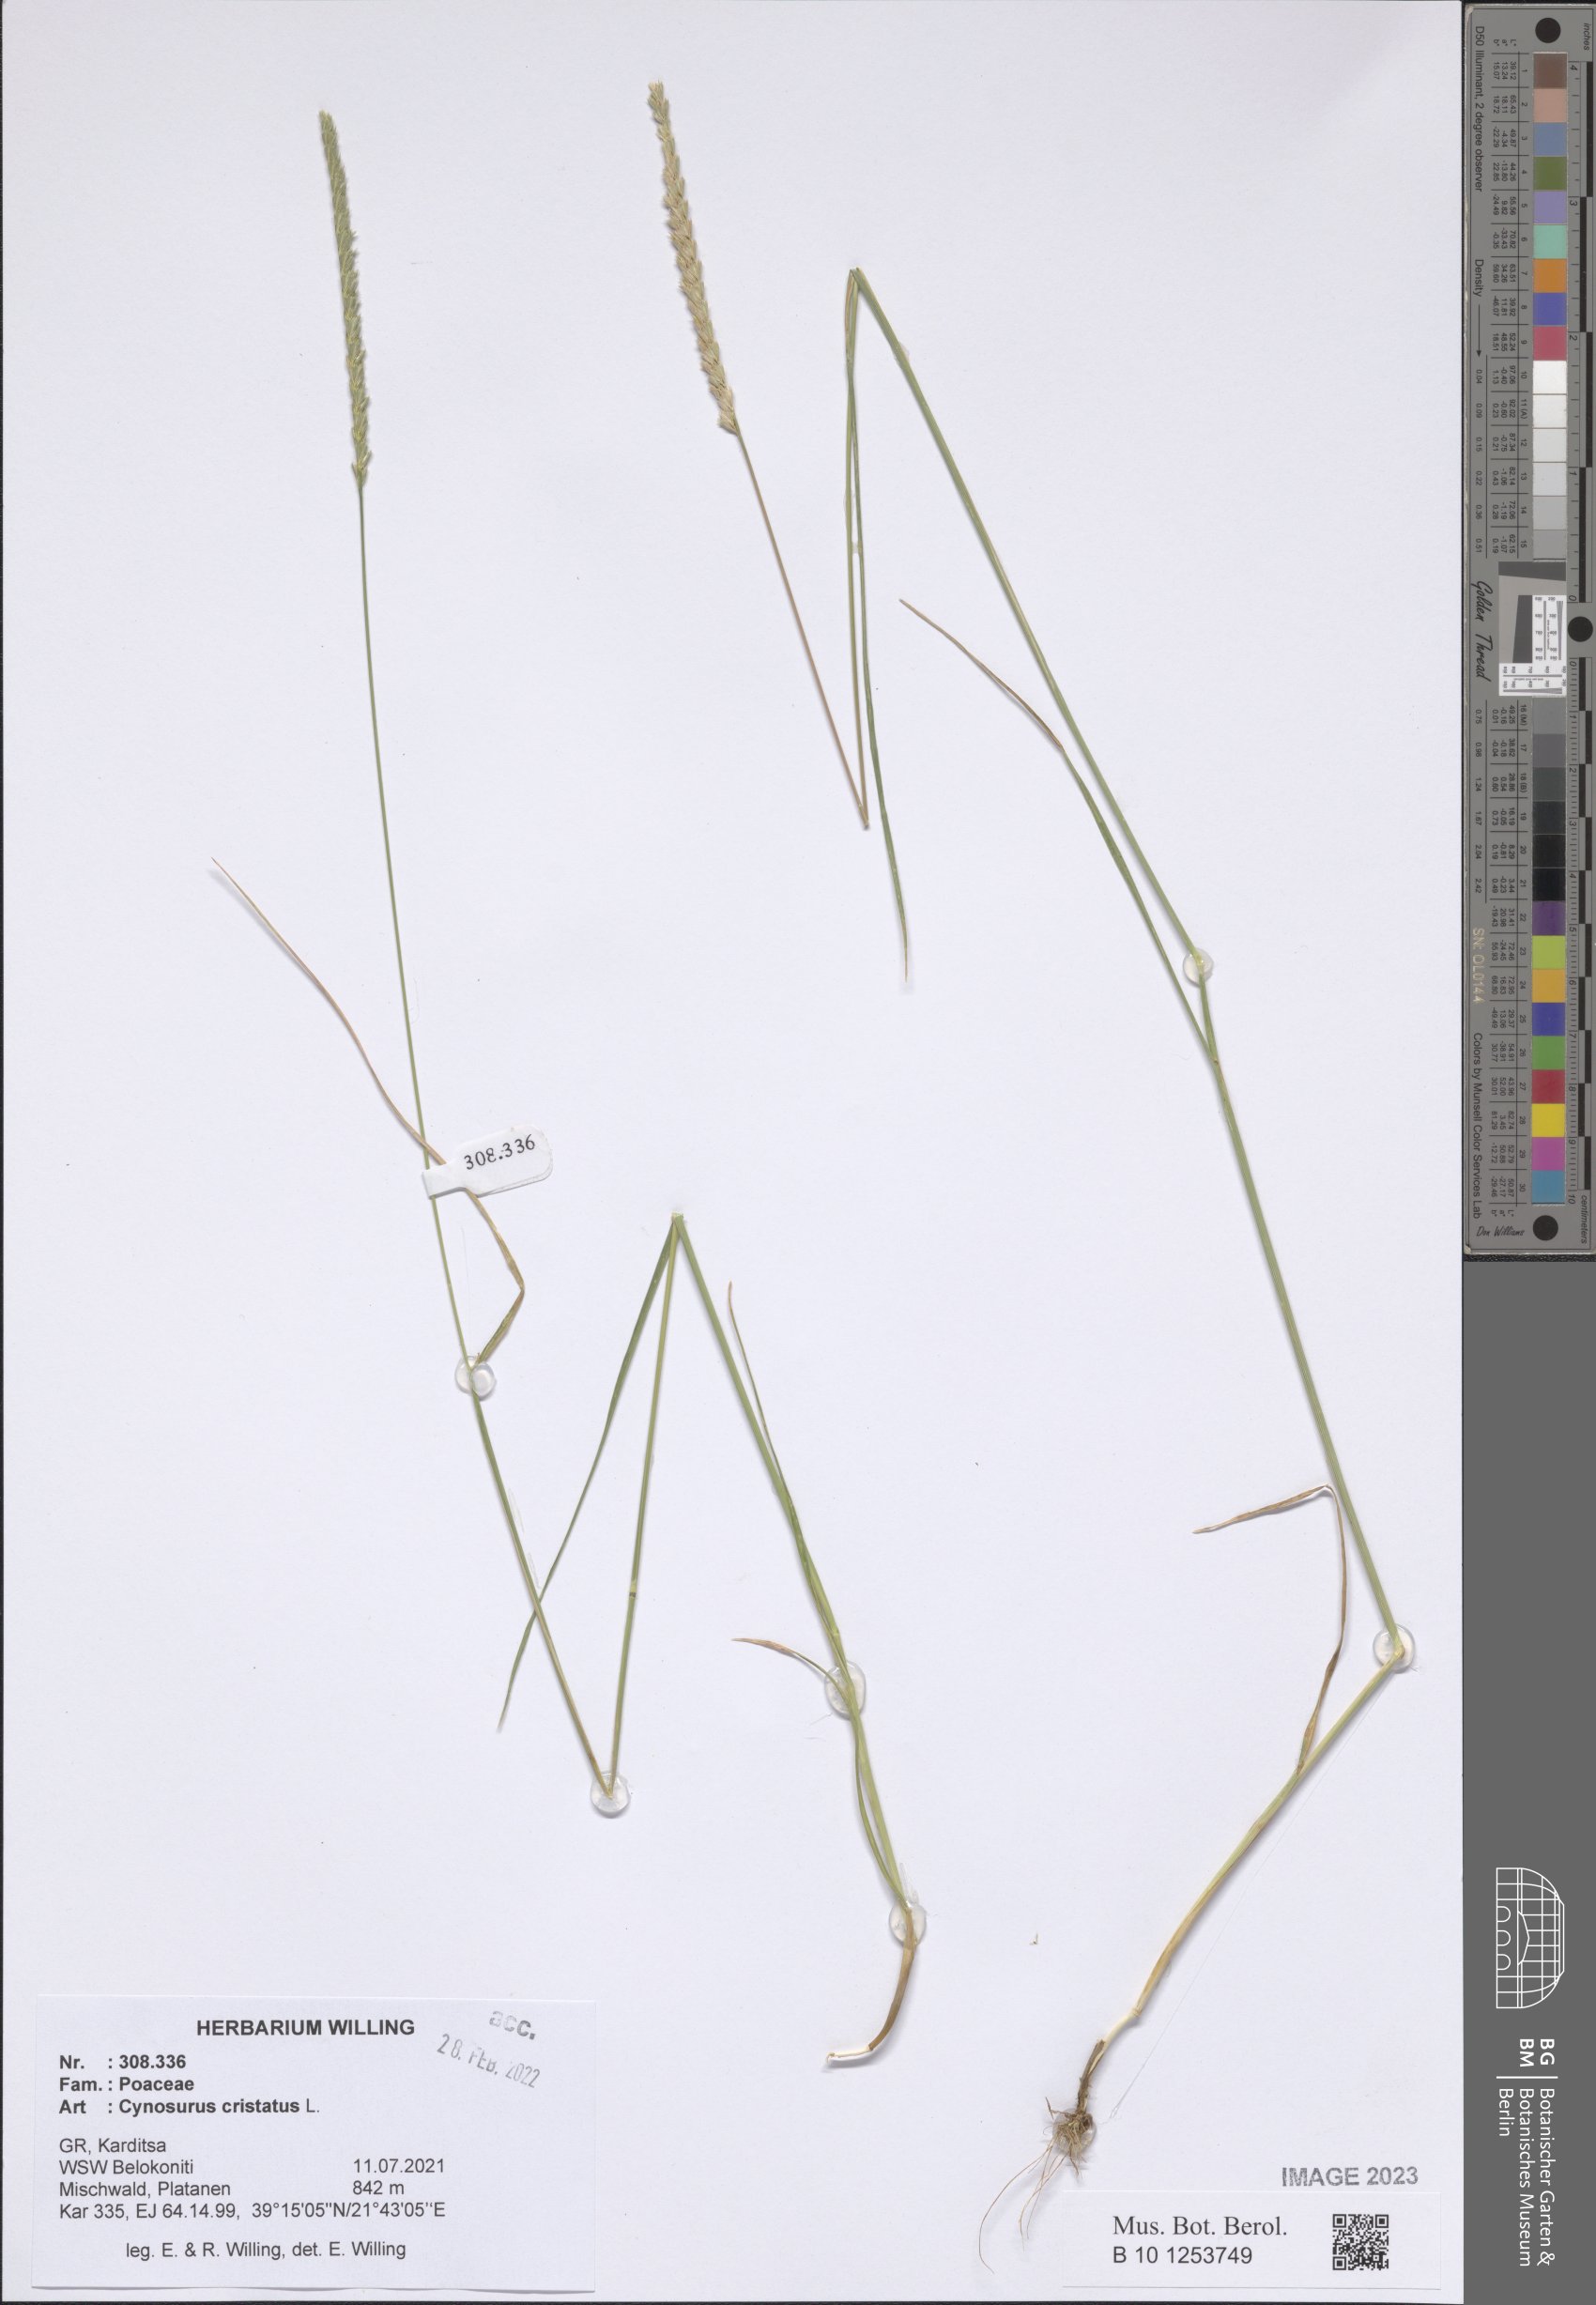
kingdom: Plantae
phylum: Tracheophyta
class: Liliopsida
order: Poales
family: Poaceae
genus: Cynosurus
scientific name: Cynosurus cristatus
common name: Crested dog's-tail
